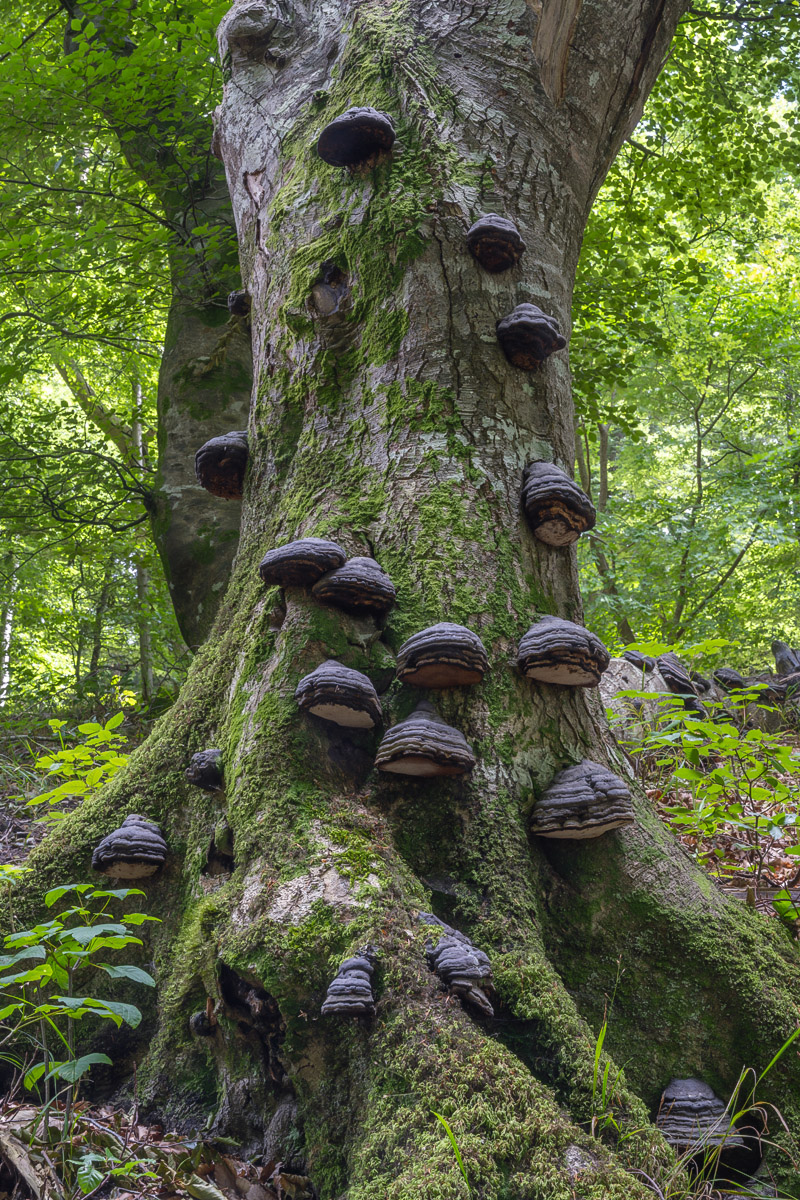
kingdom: Fungi
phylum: Basidiomycota
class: Agaricomycetes
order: Polyporales
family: Polyporaceae
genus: Fomes
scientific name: Fomes fomentarius
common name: tøndersvamp
